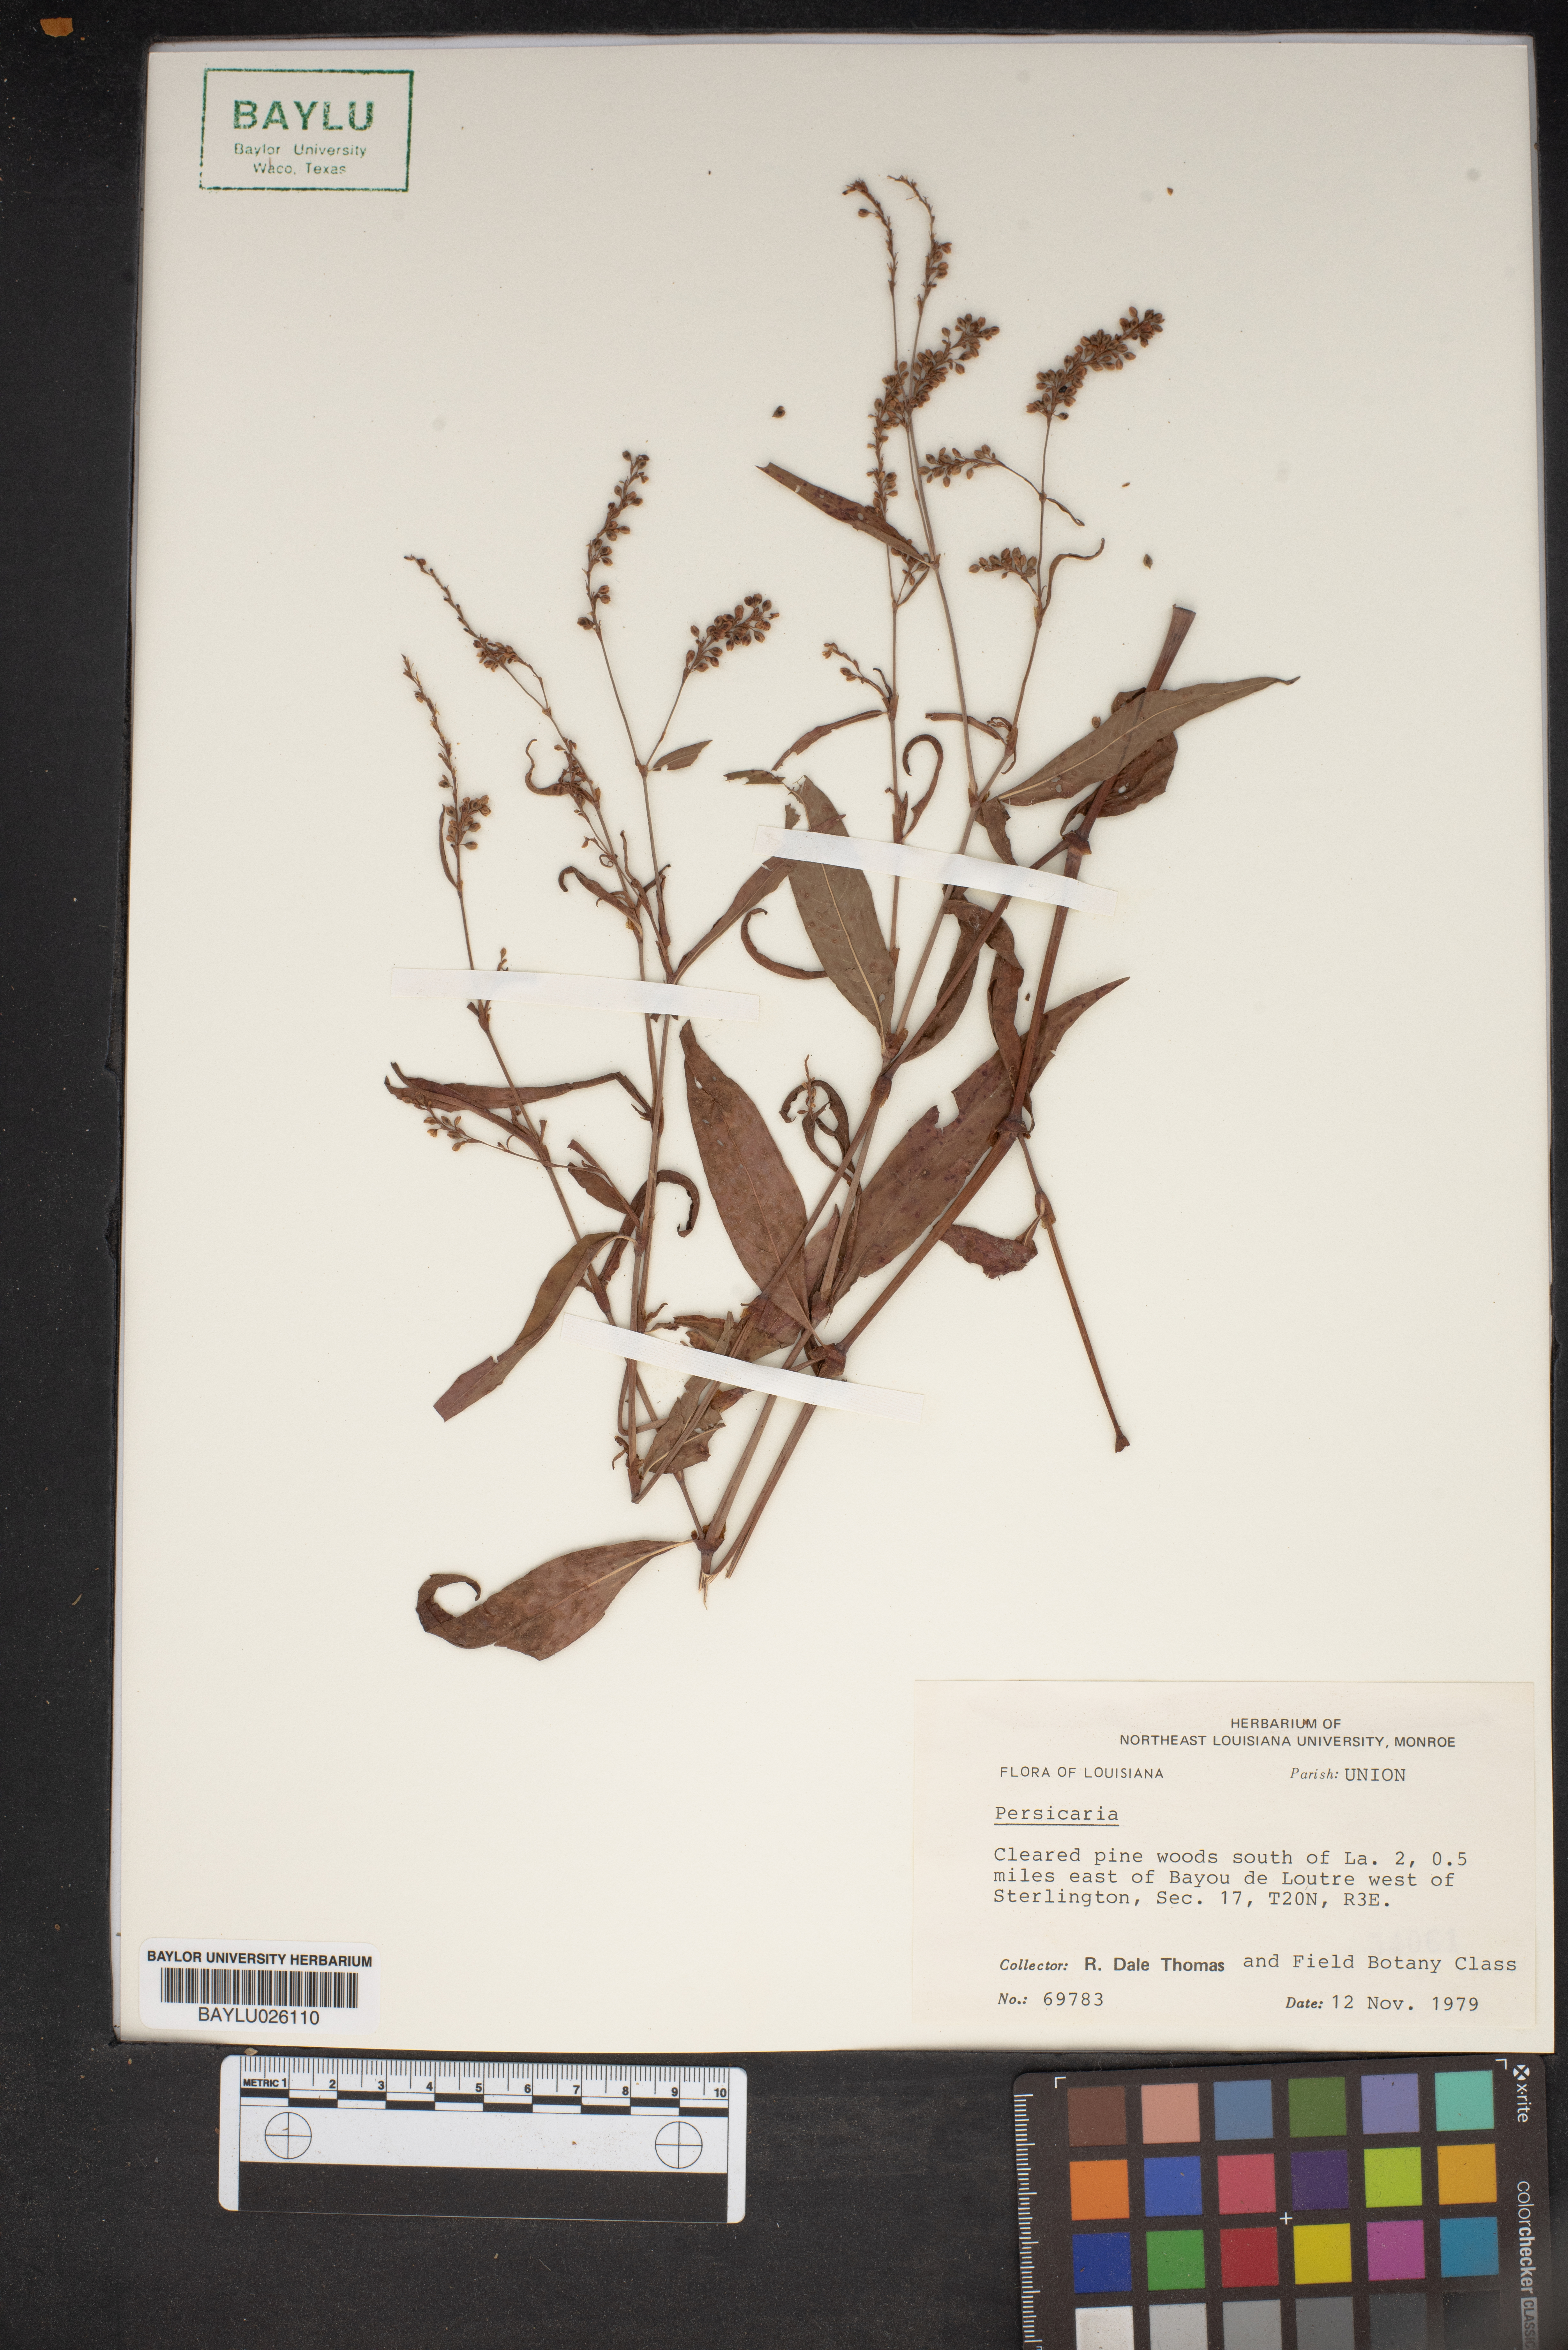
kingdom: Plantae
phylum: Tracheophyta
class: Magnoliopsida
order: Caryophyllales
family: Polygonaceae
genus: Persicaria
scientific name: Persicaria
